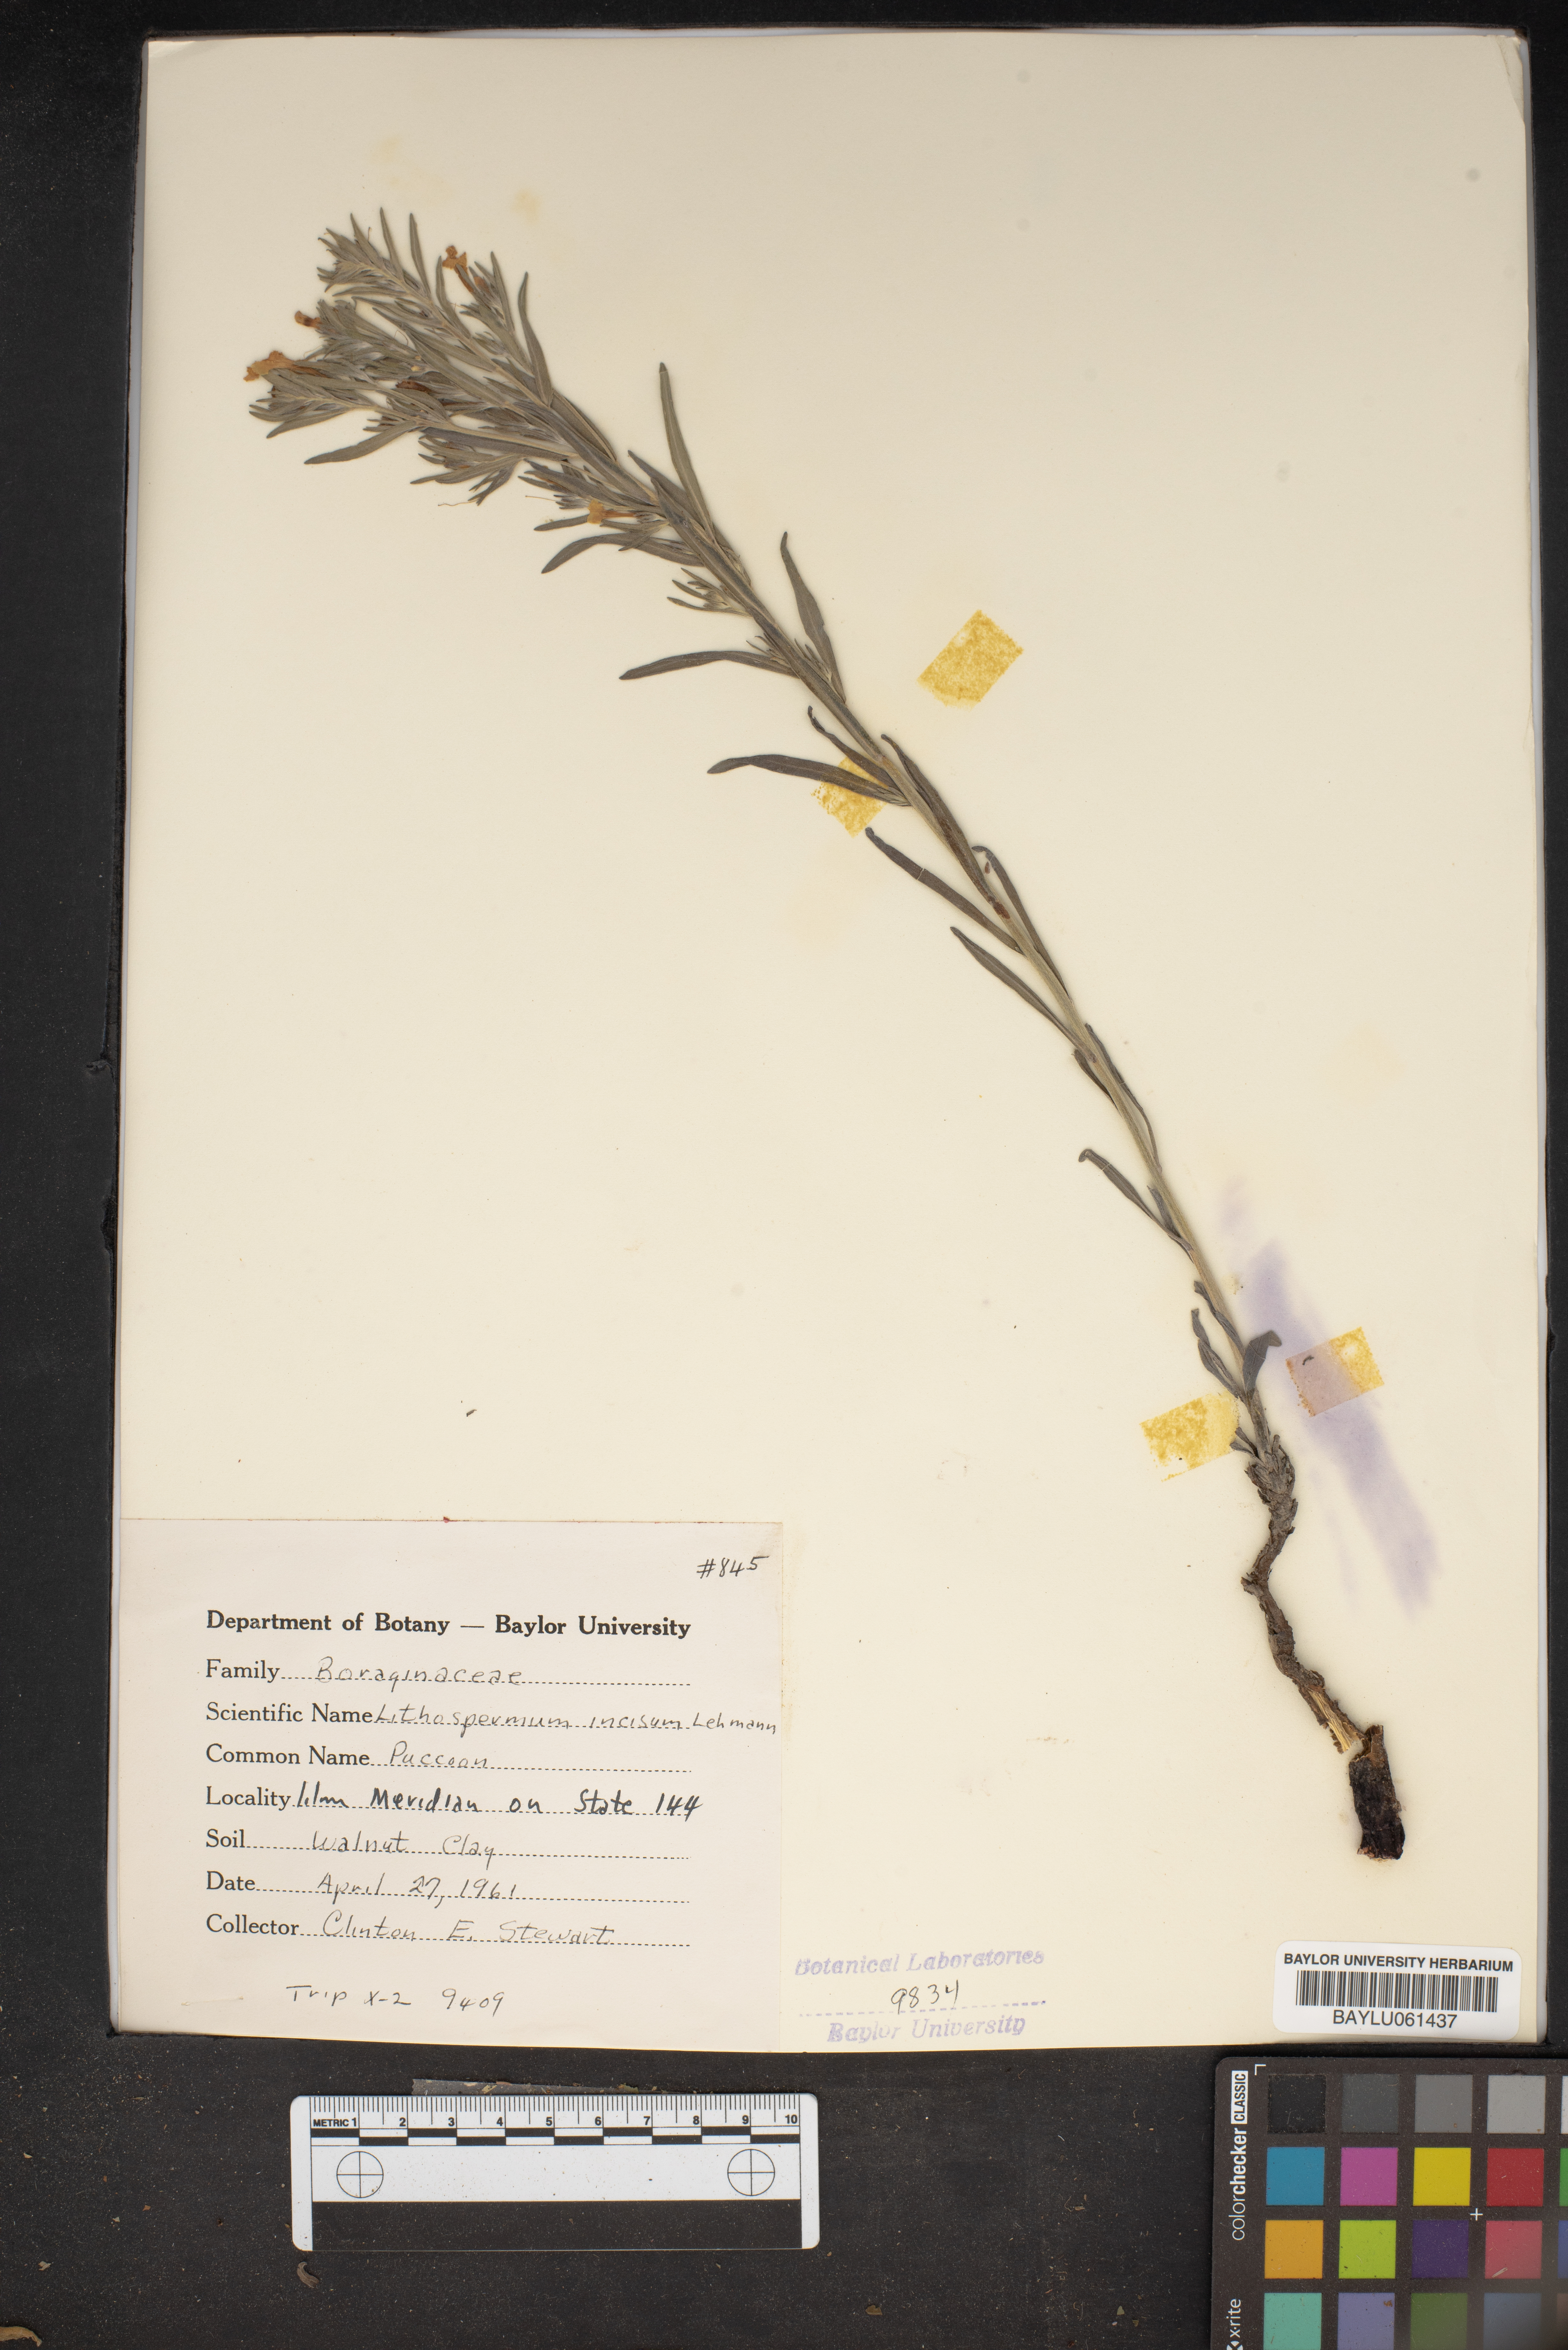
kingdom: Plantae
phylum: Tracheophyta
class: Magnoliopsida
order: Boraginales
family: Boraginaceae
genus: Lithospermum
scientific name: Lithospermum incisum
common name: Fringed gromwell
